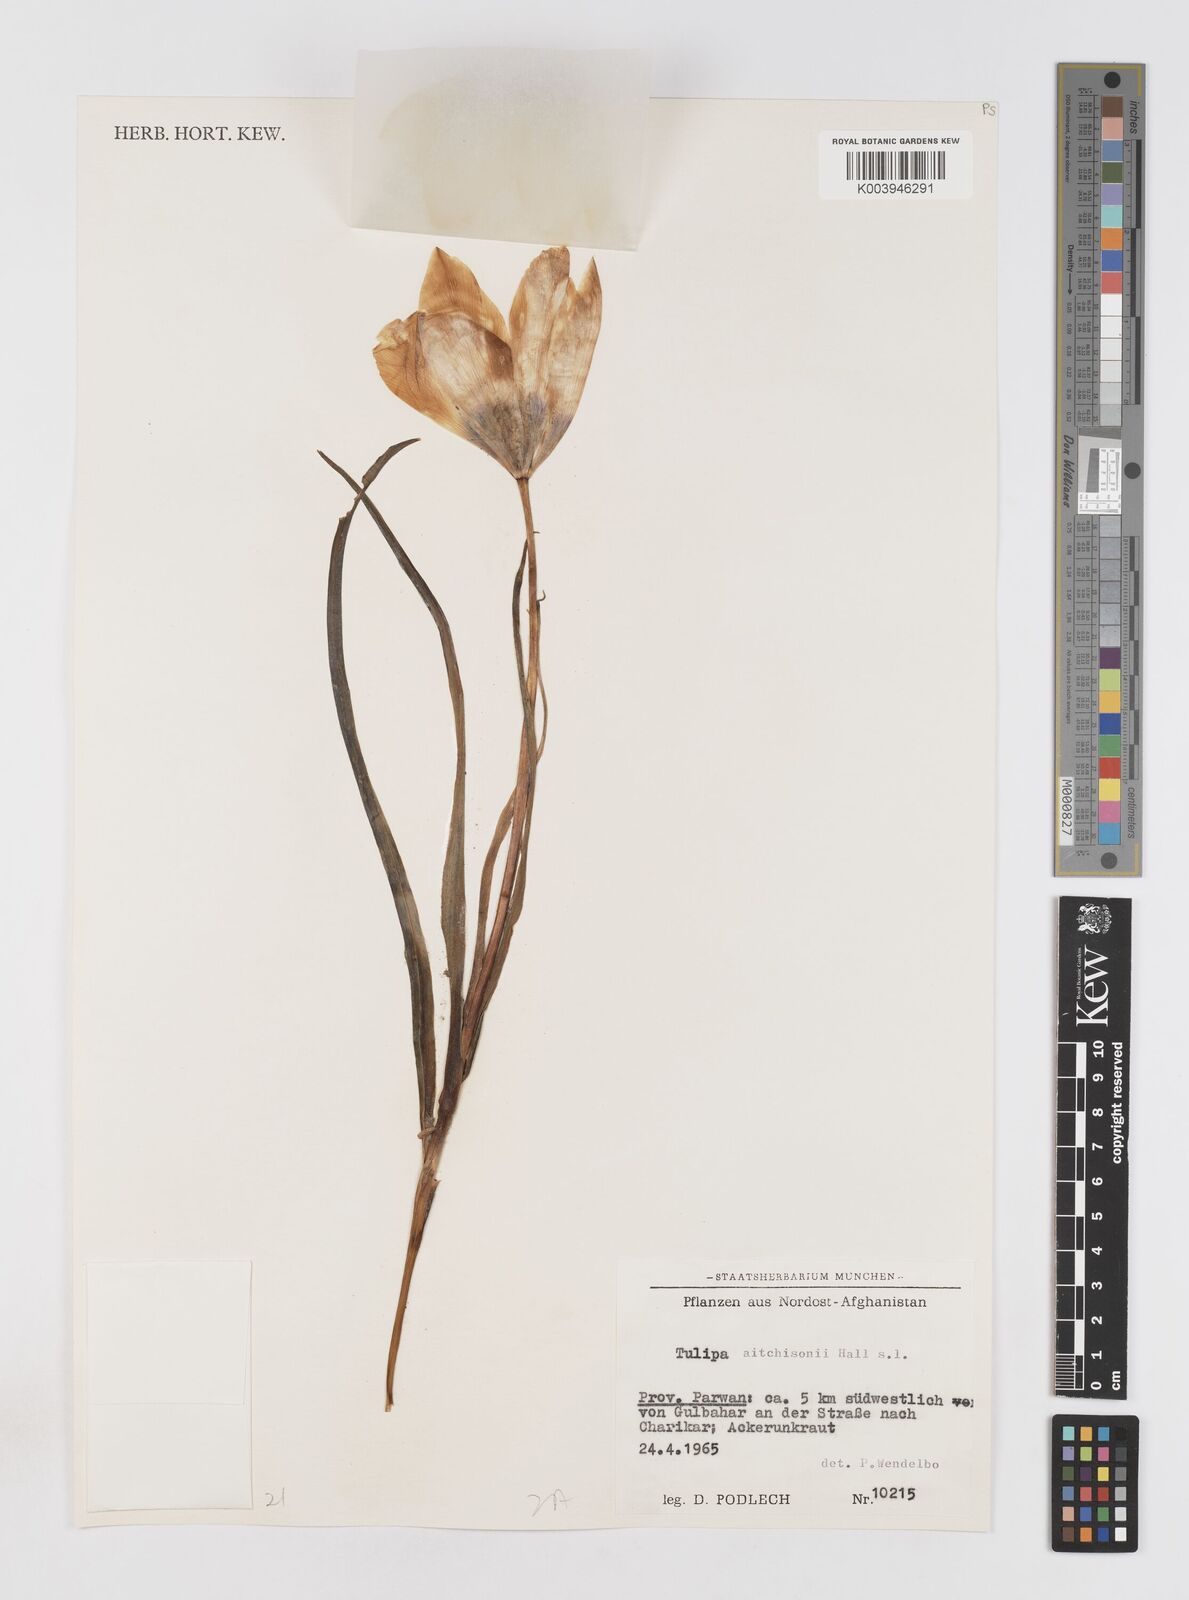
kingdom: Plantae
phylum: Tracheophyta
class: Liliopsida
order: Liliales
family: Liliaceae
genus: Tulipa
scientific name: Tulipa clusiana
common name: Lady tulip
